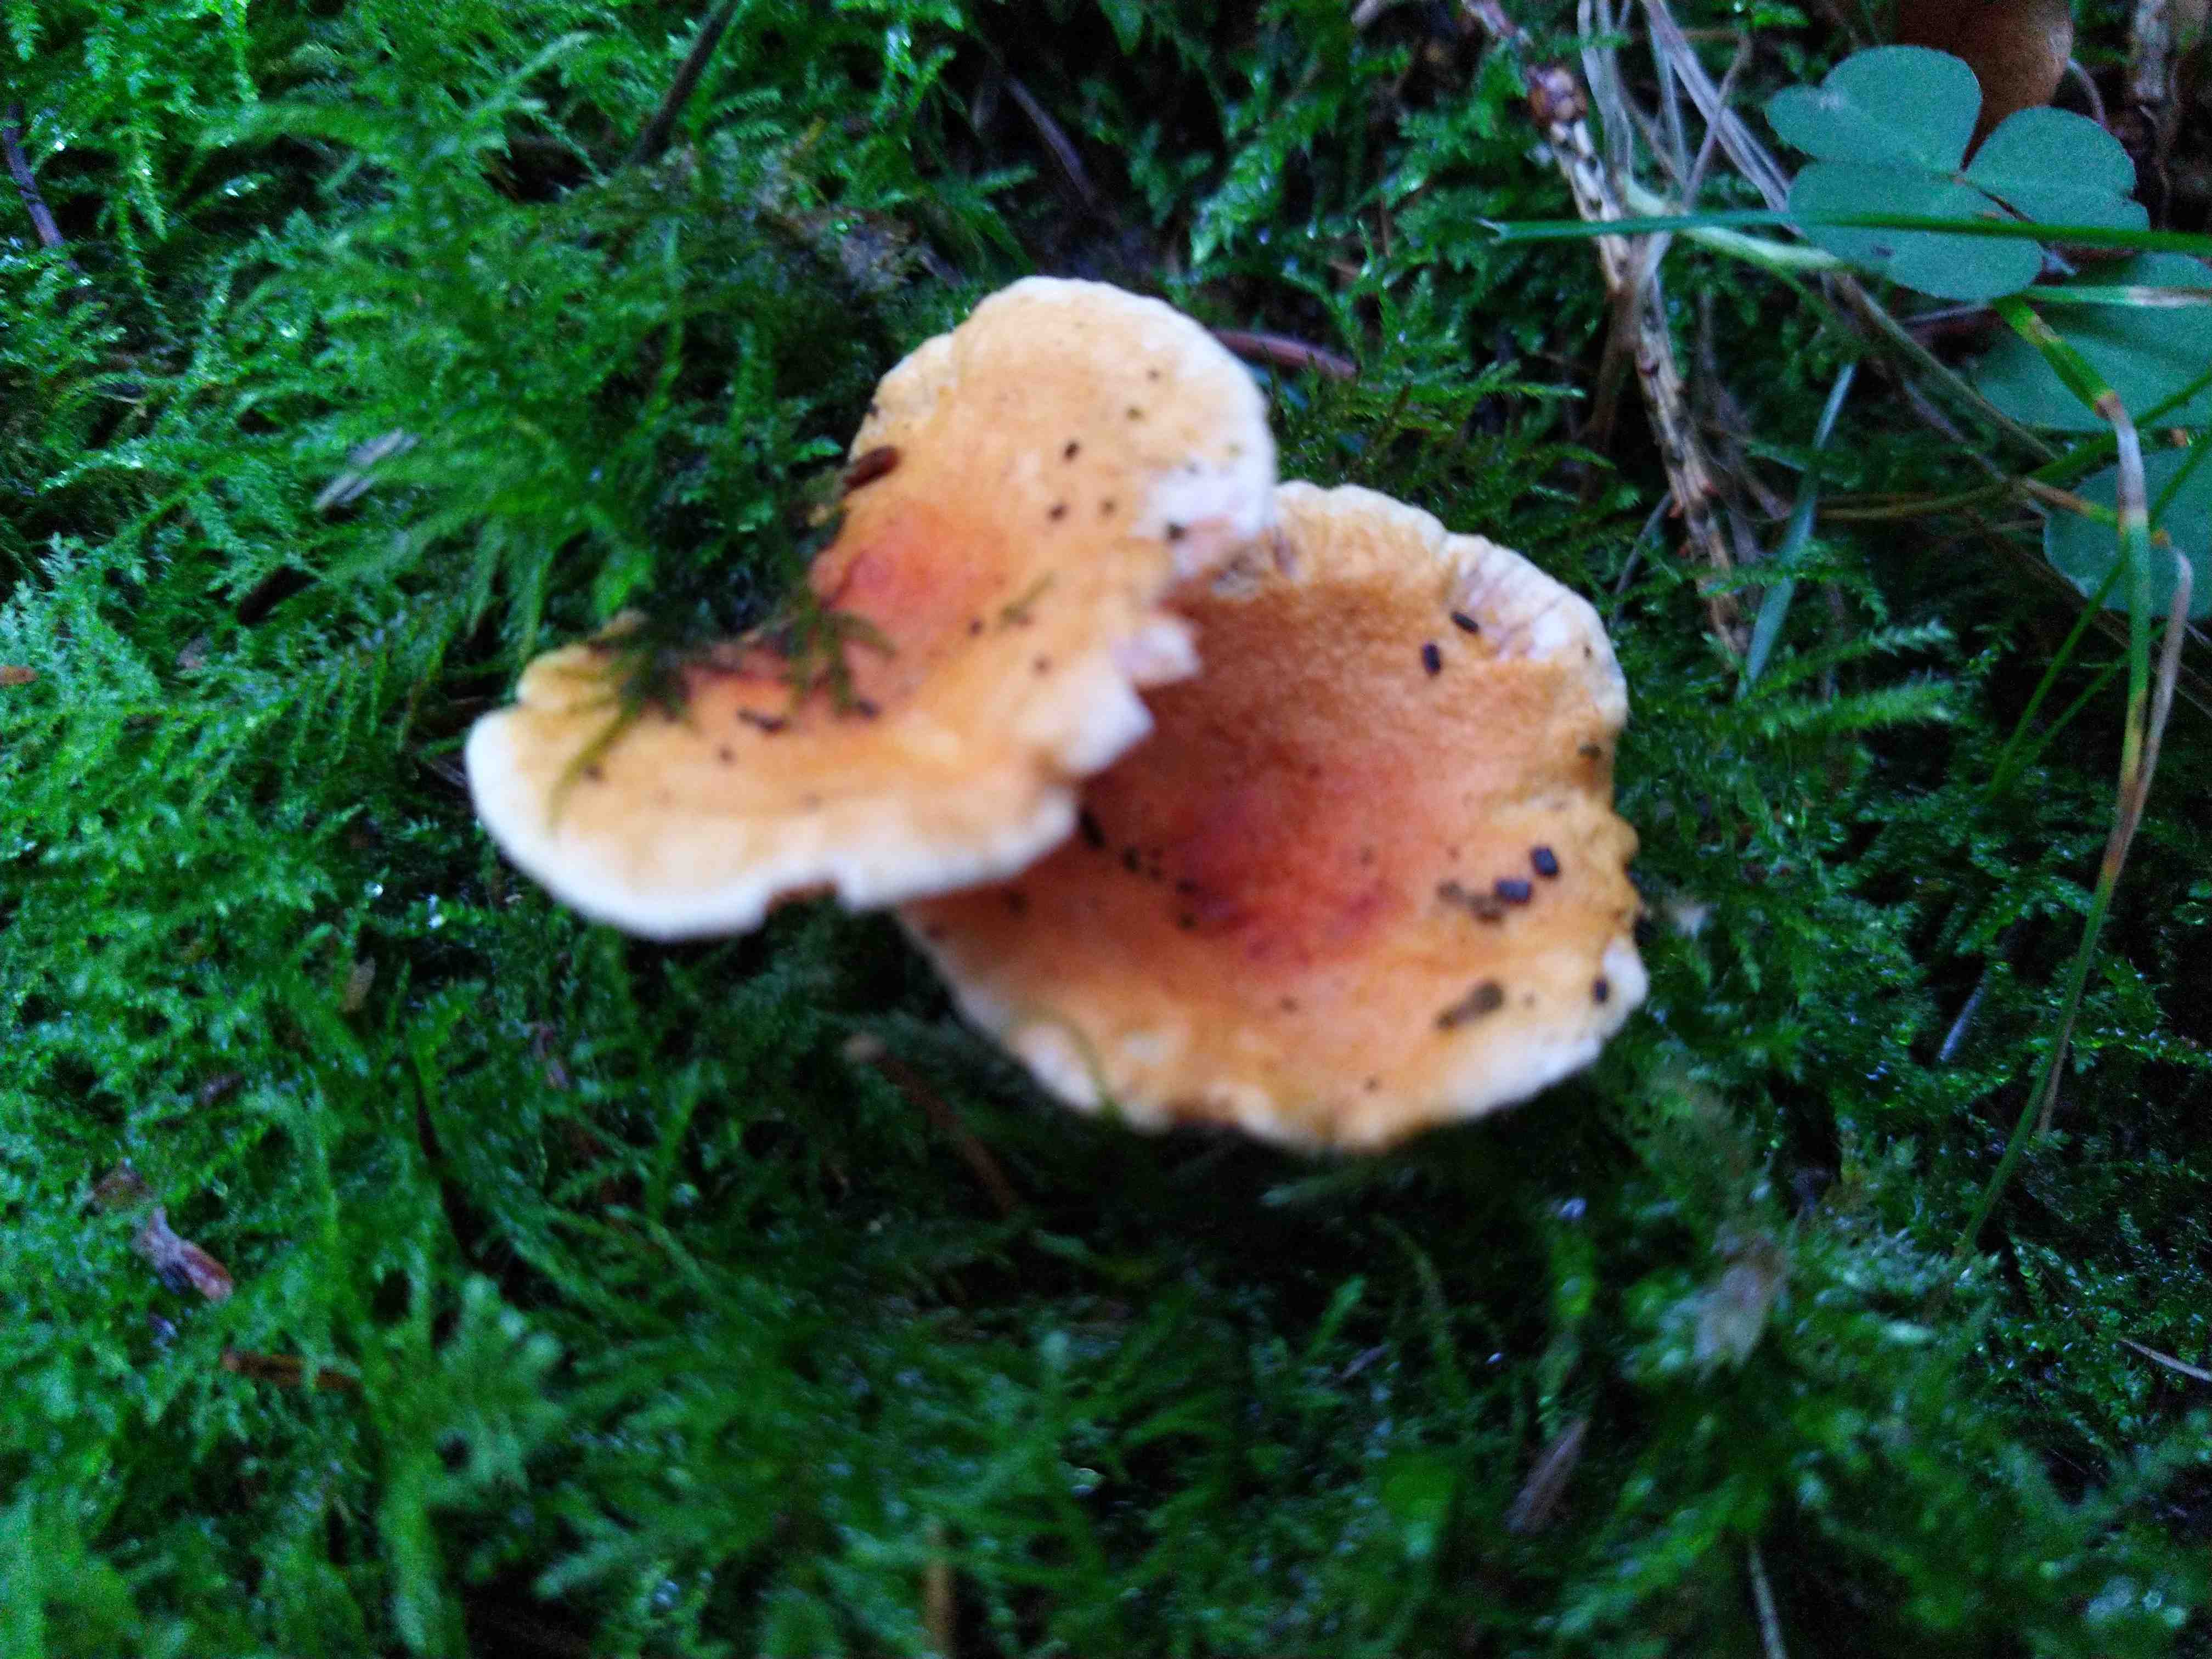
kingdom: Fungi
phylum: Basidiomycota
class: Agaricomycetes
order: Boletales
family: Hygrophoropsidaceae
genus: Hygrophoropsis
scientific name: Hygrophoropsis aurantiaca
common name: almindelig orangekantarel
